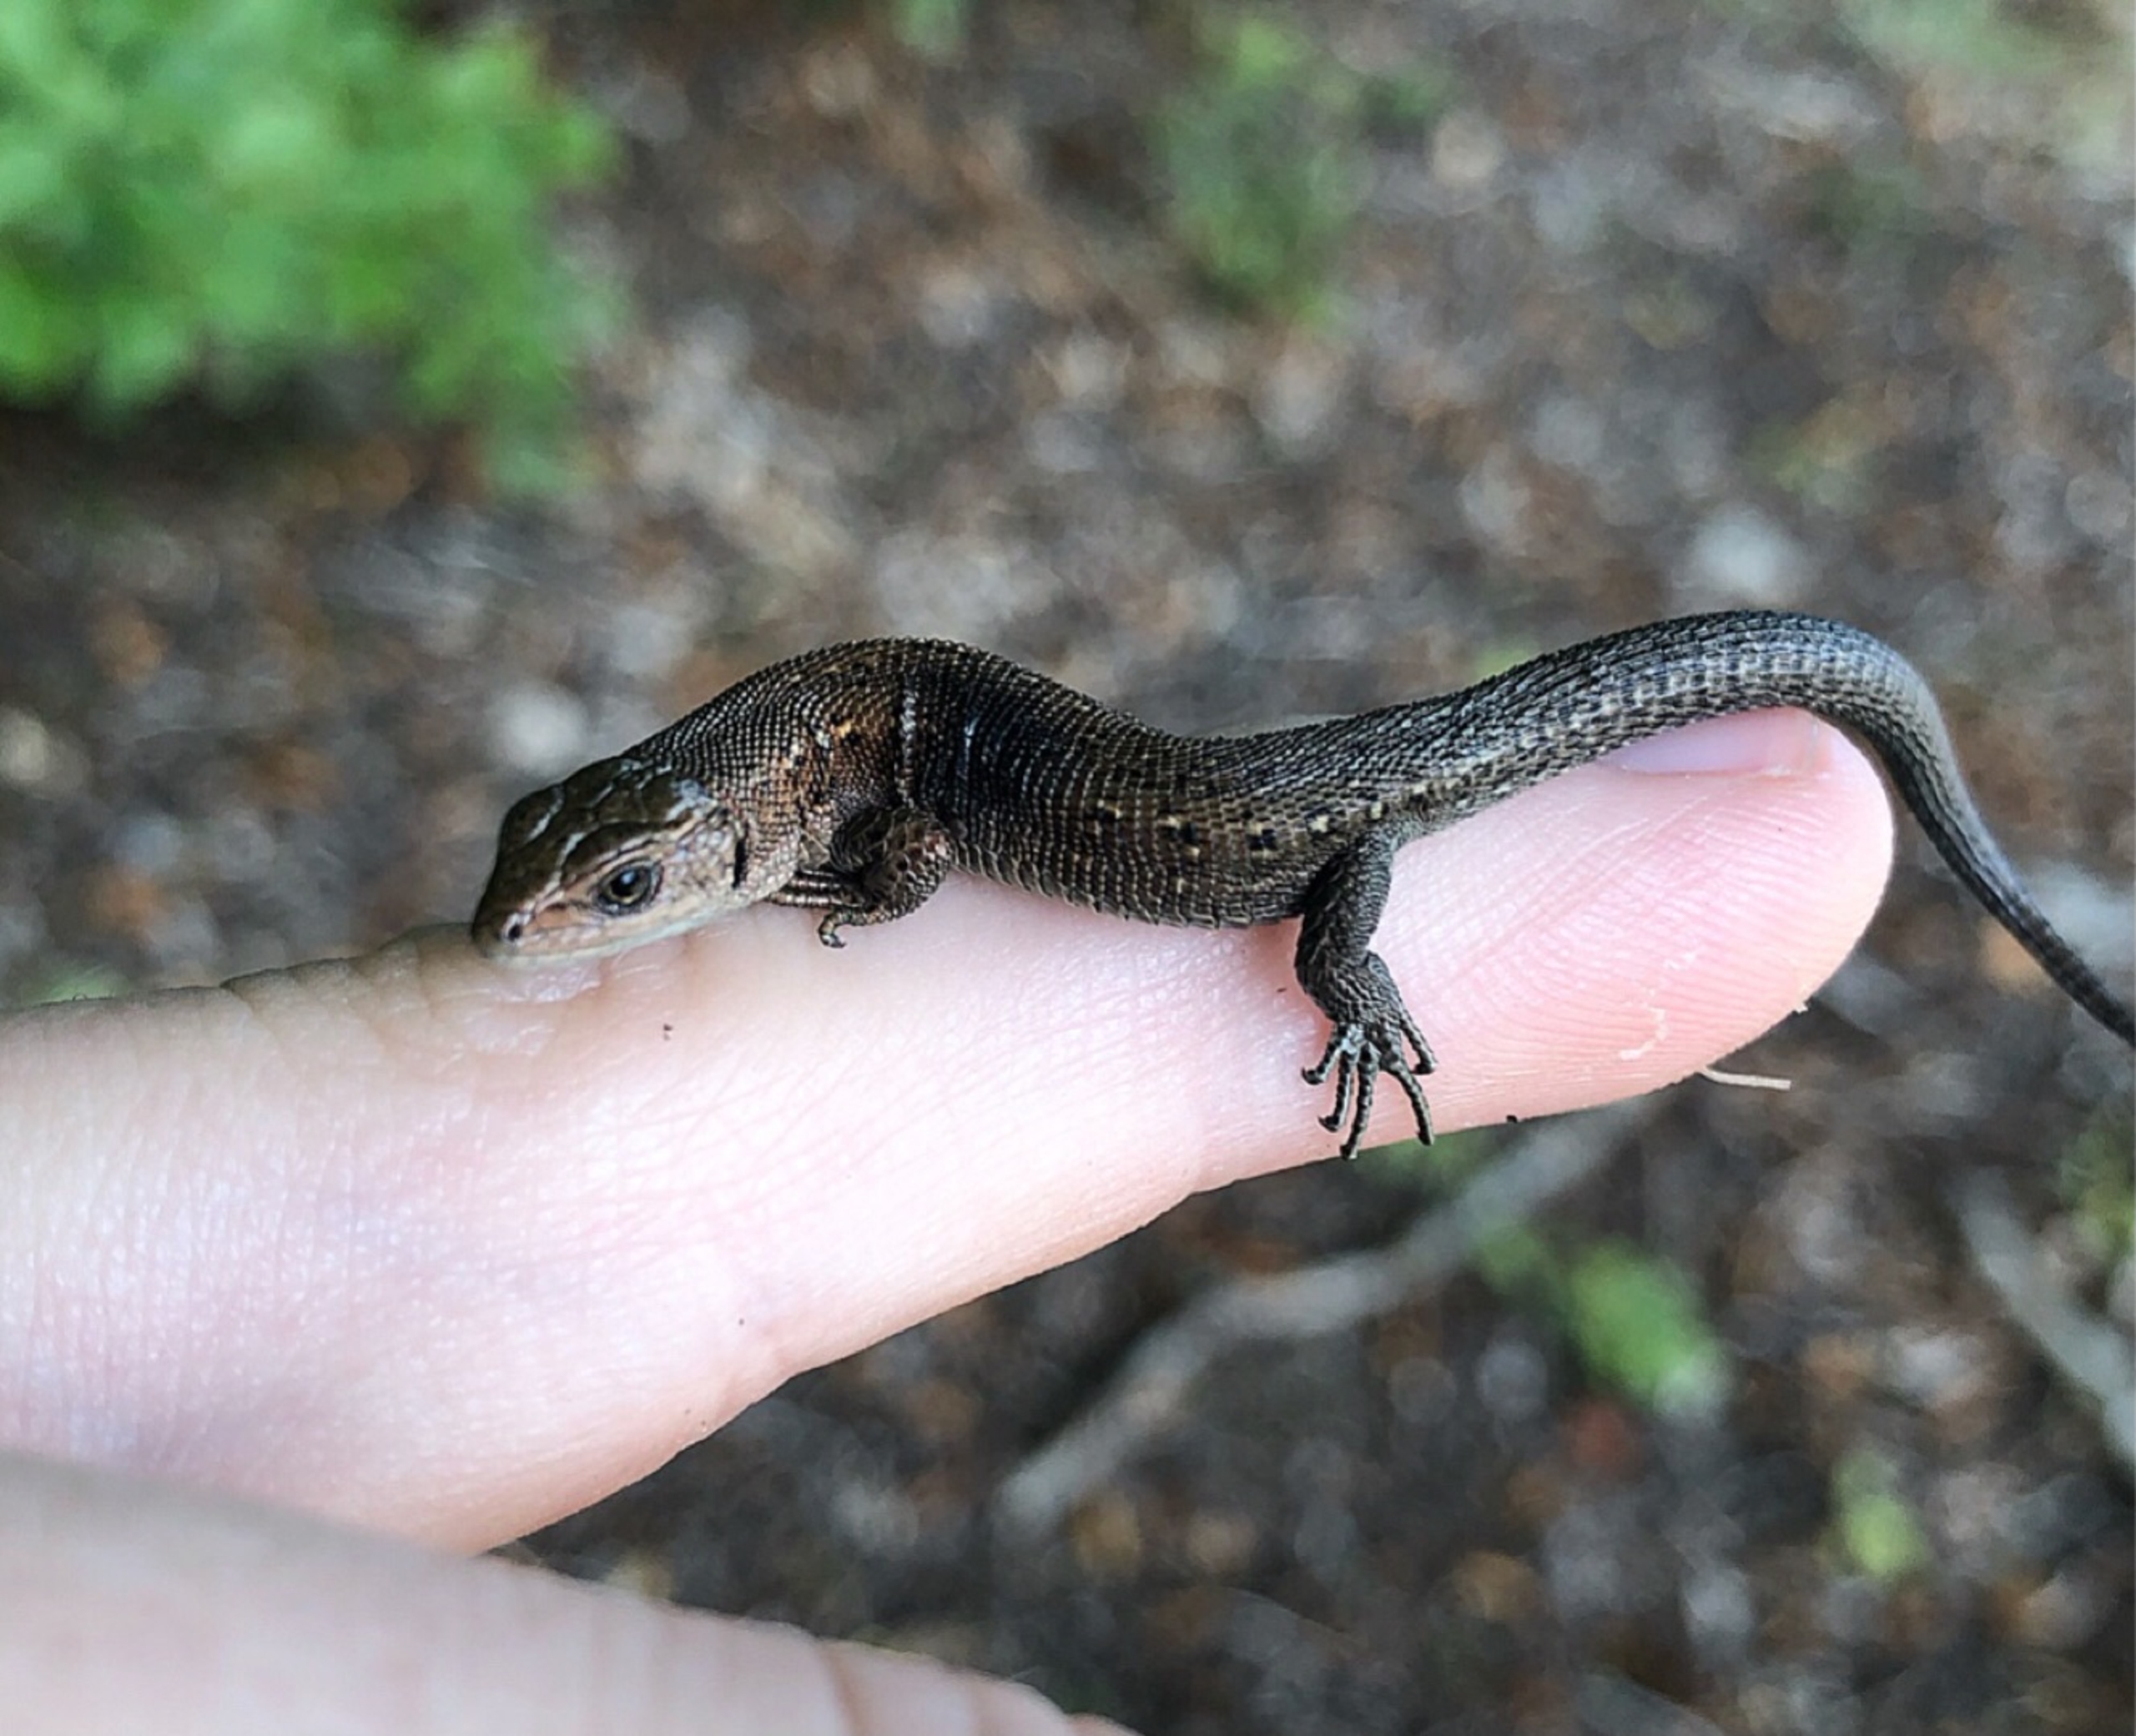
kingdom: Animalia
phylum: Chordata
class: Squamata
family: Lacertidae
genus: Zootoca
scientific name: Zootoca vivipara
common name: Skovfirben
